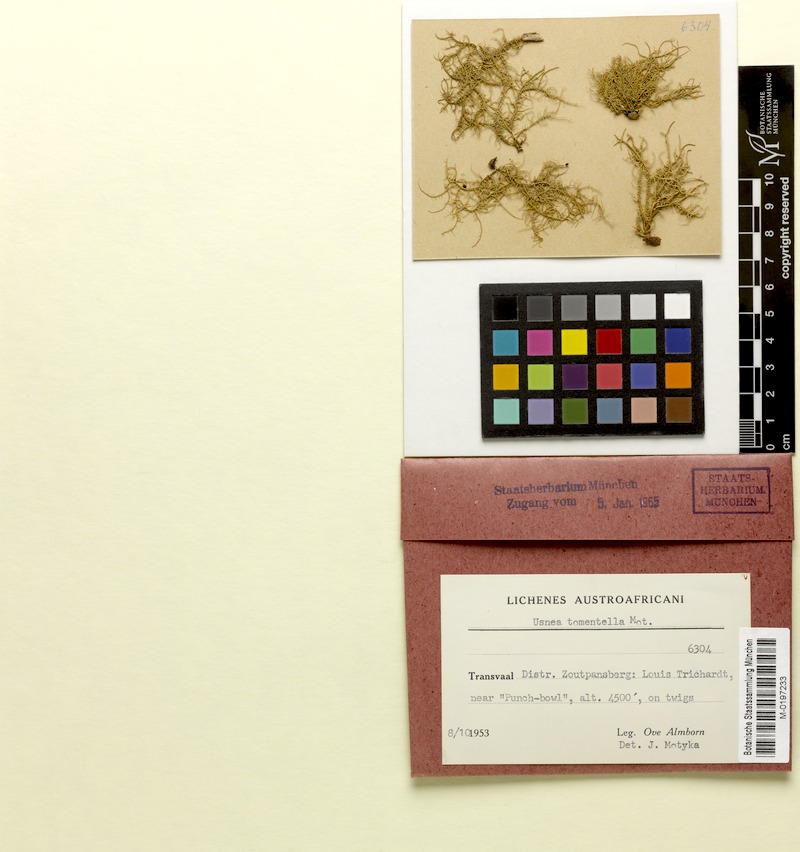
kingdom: Fungi
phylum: Ascomycota
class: Lecanoromycetes
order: Lecanorales
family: Parmeliaceae
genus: Usnea
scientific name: Usnea
